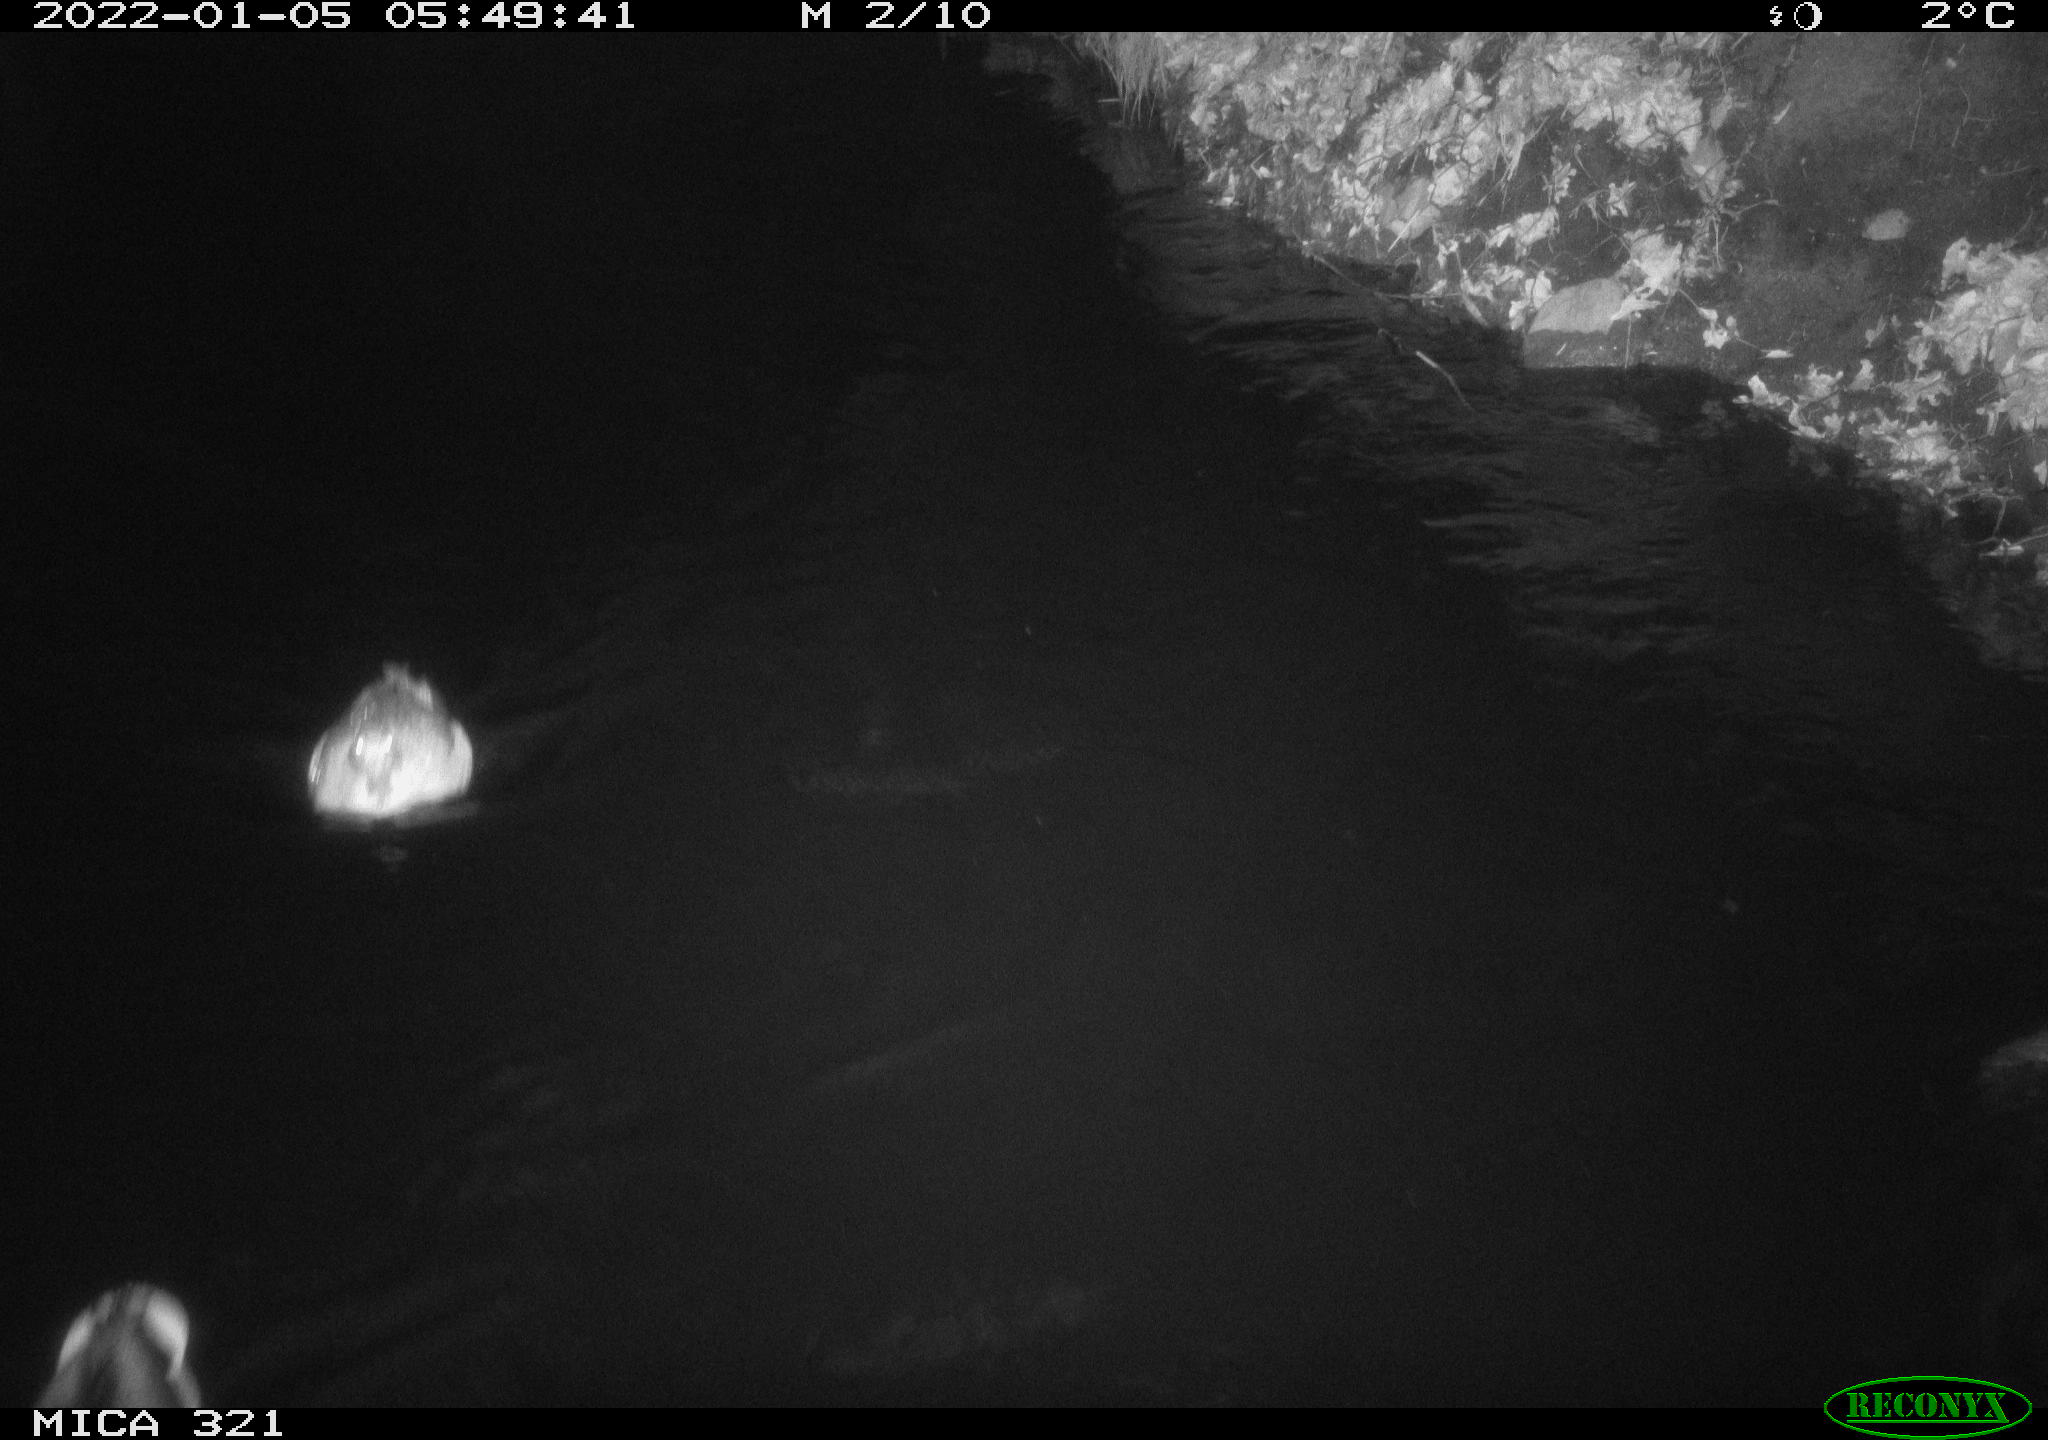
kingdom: Animalia
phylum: Chordata
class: Aves
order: Anseriformes
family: Anatidae
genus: Anas
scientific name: Anas platyrhynchos
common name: Mallard
